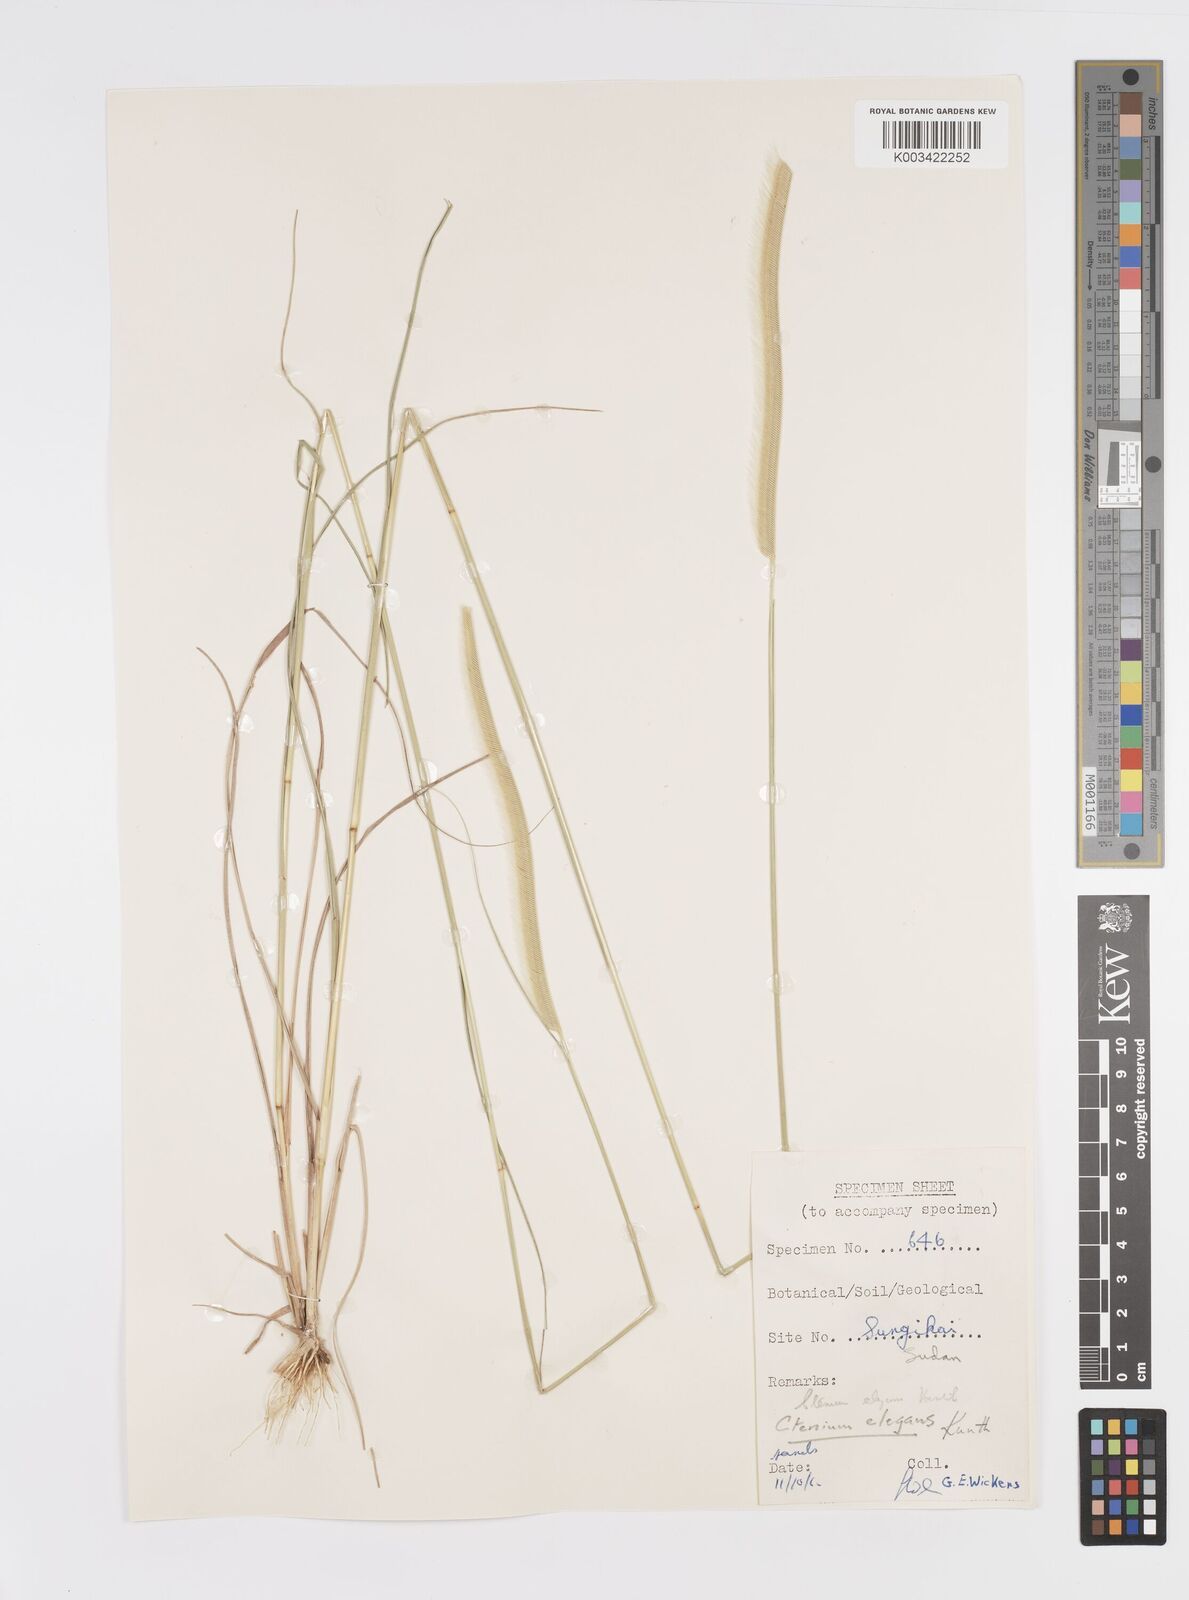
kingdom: Plantae
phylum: Tracheophyta
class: Liliopsida
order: Poales
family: Poaceae
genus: Ctenium
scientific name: Ctenium elegans
